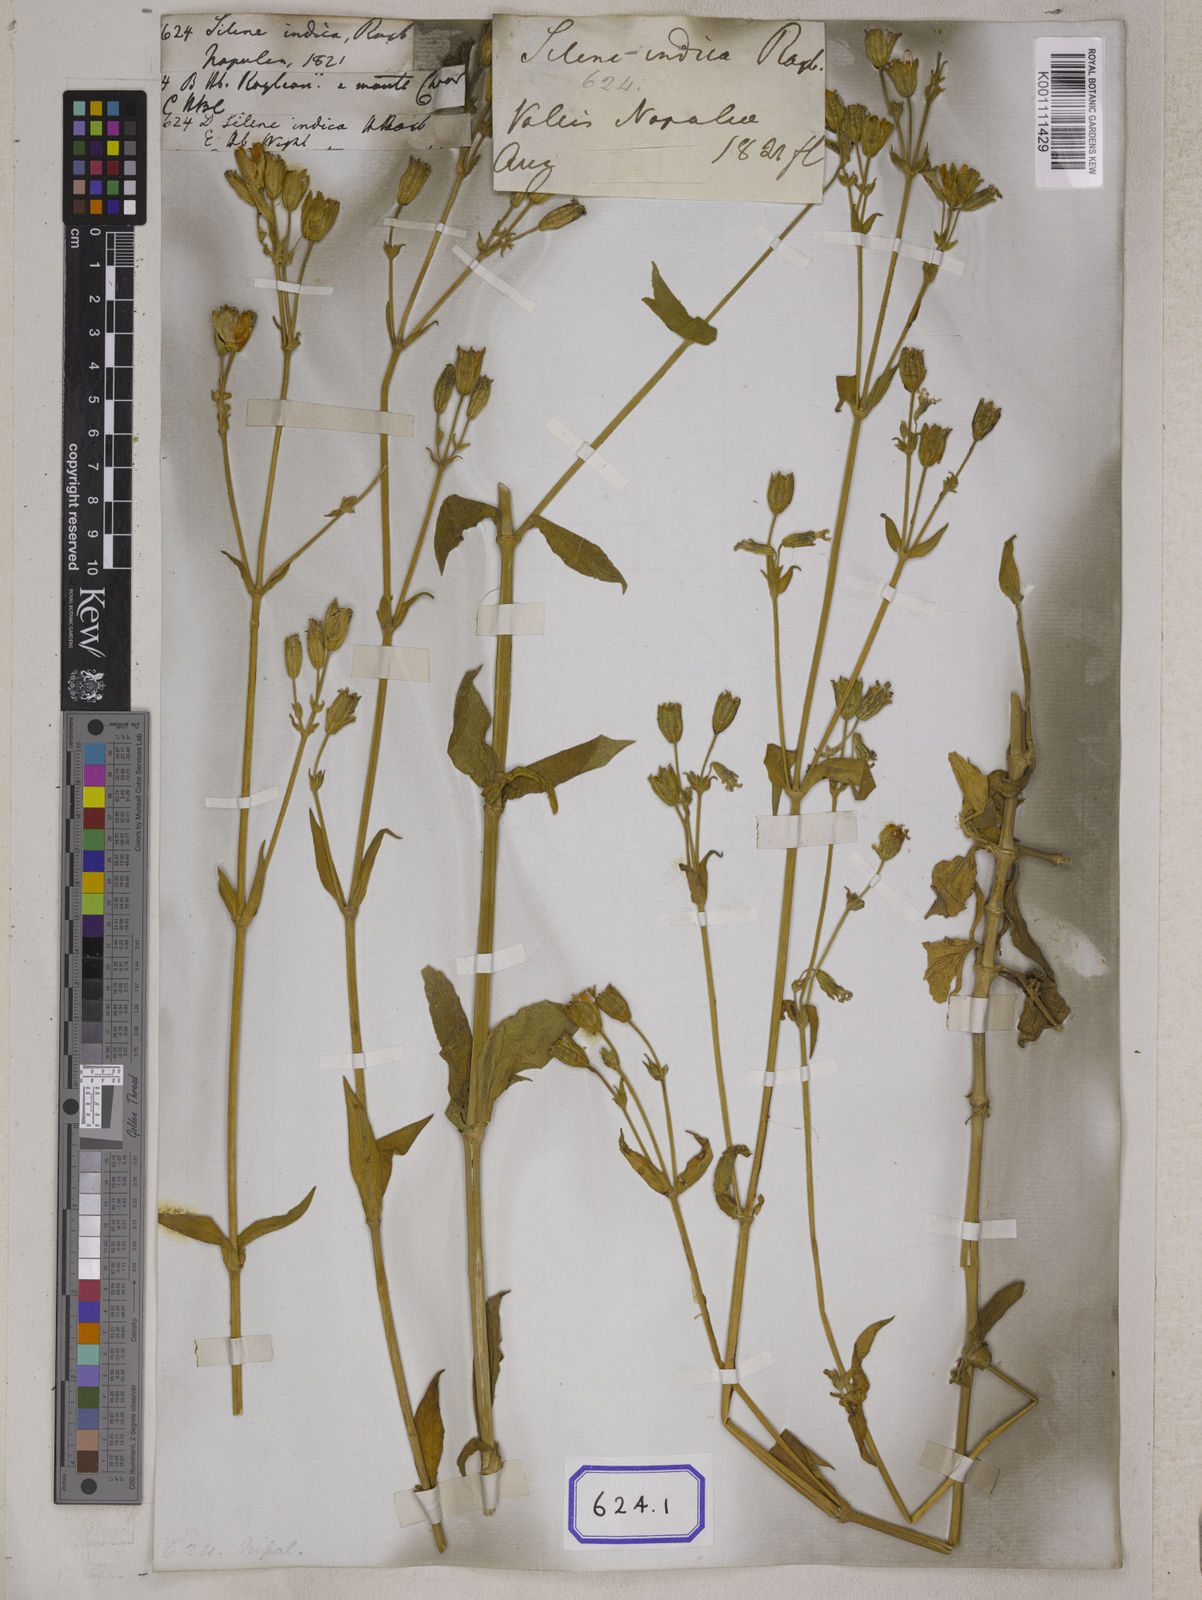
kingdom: Plantae
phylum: Tracheophyta
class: Magnoliopsida
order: Caryophyllales
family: Caryophyllaceae
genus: Silene
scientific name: Silene
